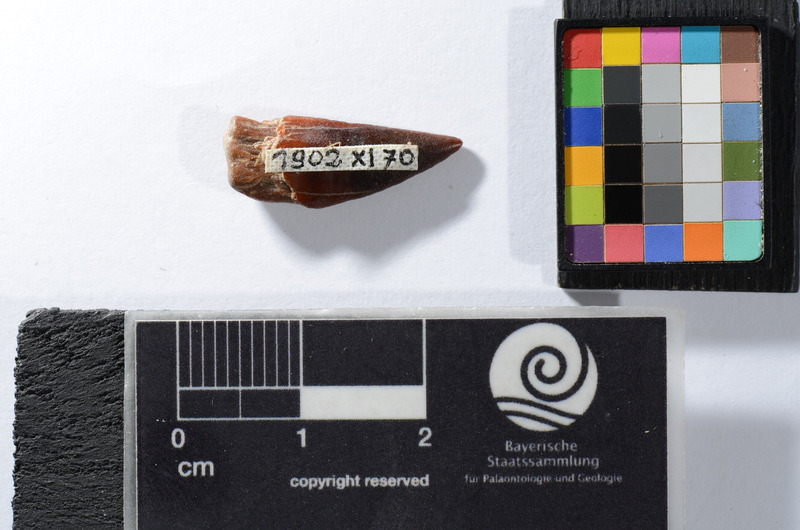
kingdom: Animalia
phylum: Chordata
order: Perciformes
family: Sphyraenidae
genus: Sphyraena
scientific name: Sphyraena Saurocephalus fajumensis
